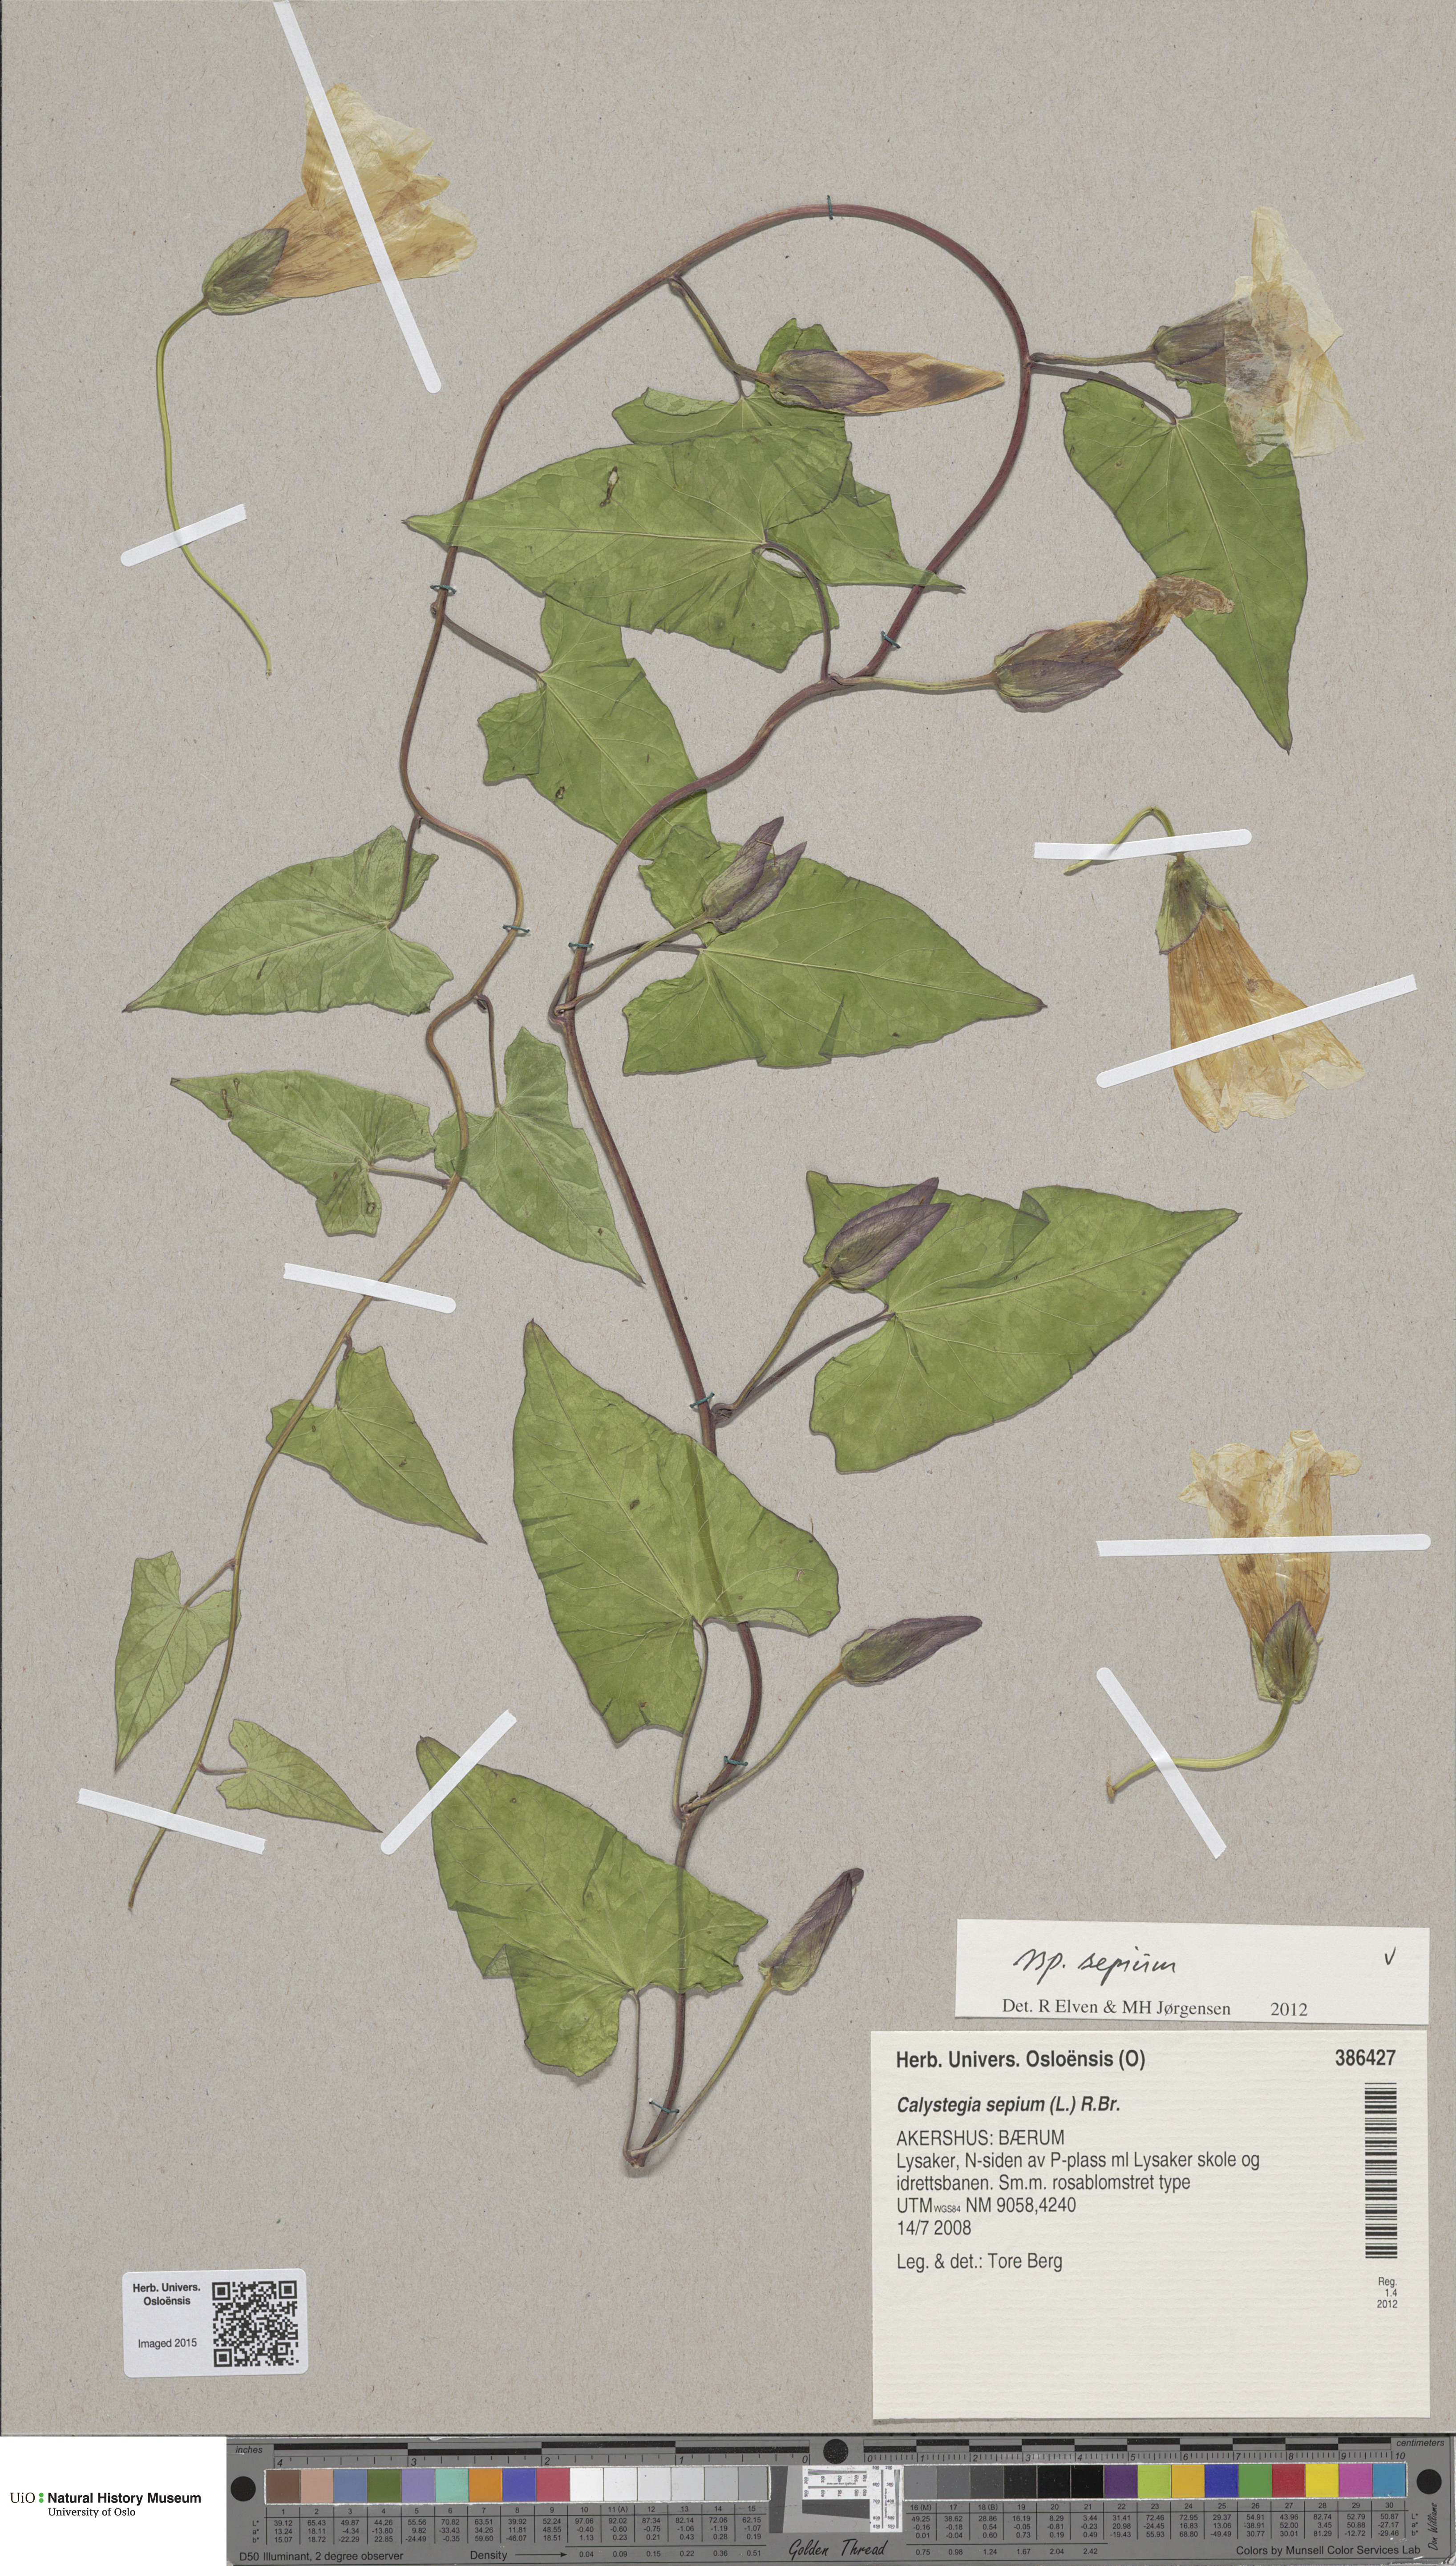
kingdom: Plantae
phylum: Tracheophyta
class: Magnoliopsida
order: Solanales
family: Convolvulaceae
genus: Calystegia
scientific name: Calystegia sepium
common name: Hedge bindweed
